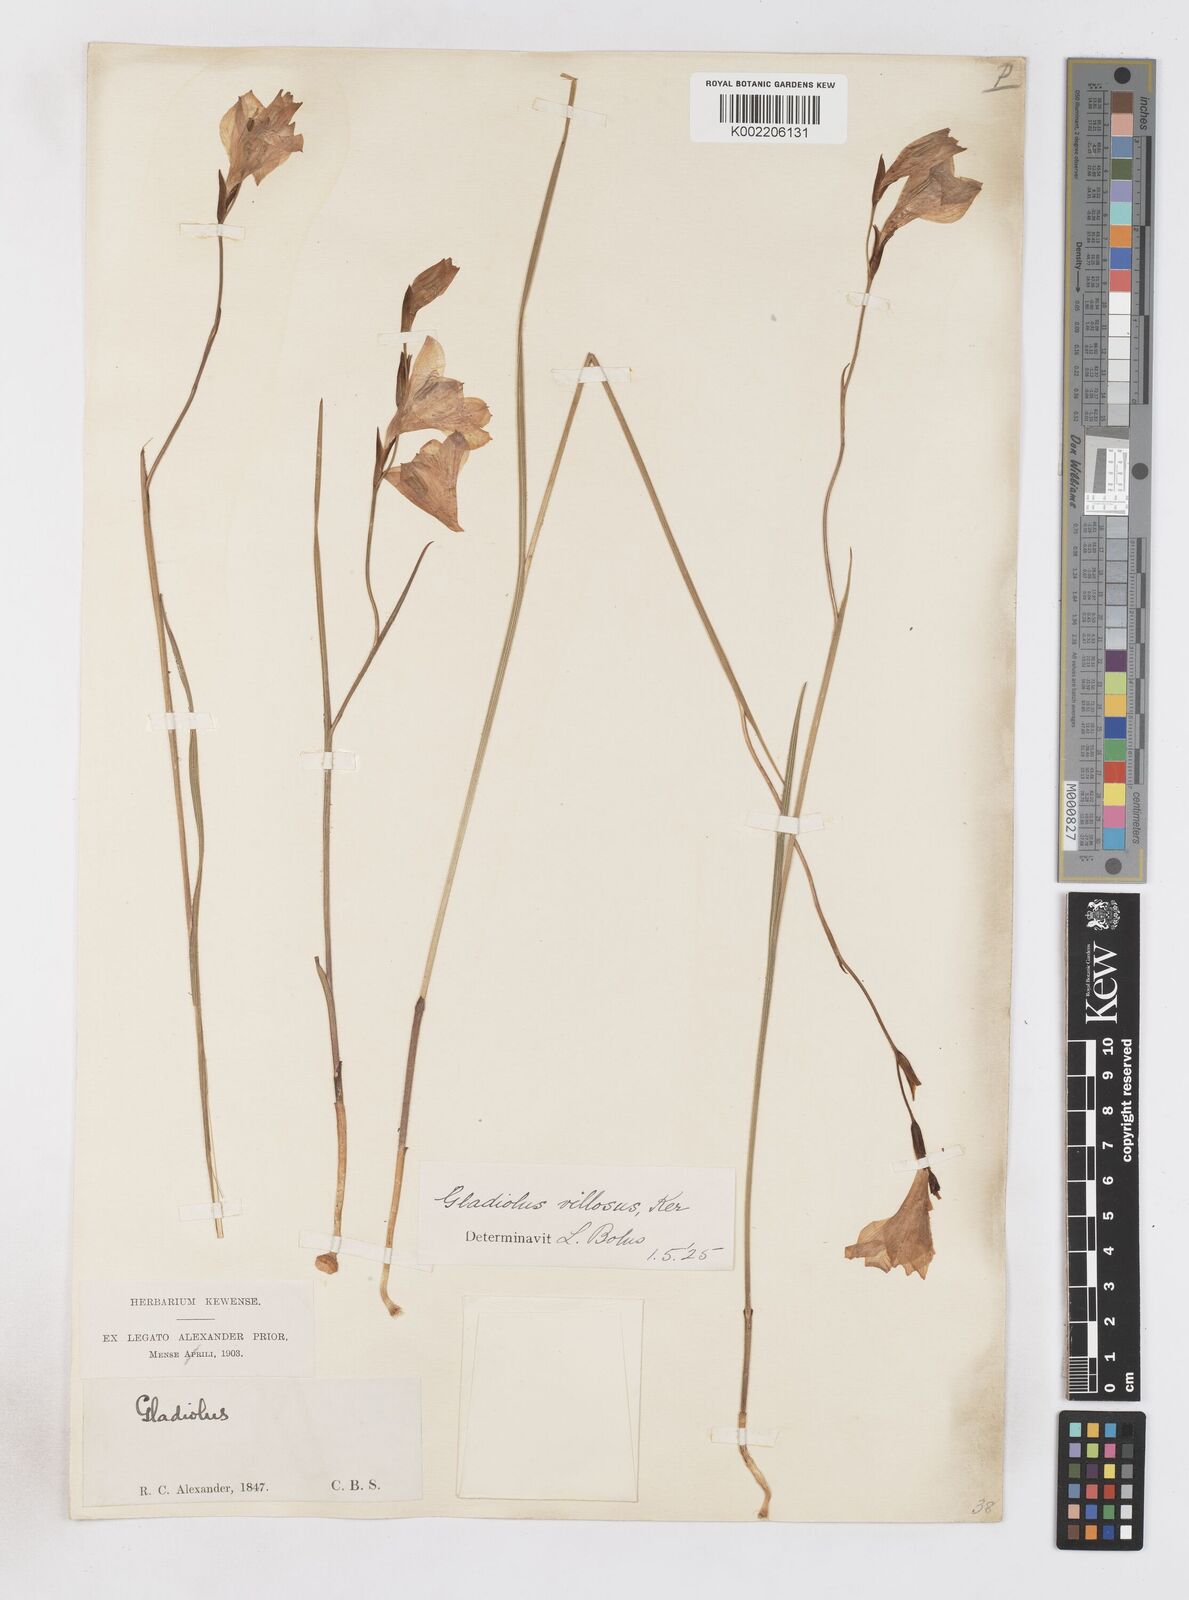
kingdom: Plantae
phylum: Tracheophyta
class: Liliopsida
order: Asparagales
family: Iridaceae
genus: Gladiolus
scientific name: Gladiolus hirsutus
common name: Small pink afrikaner
